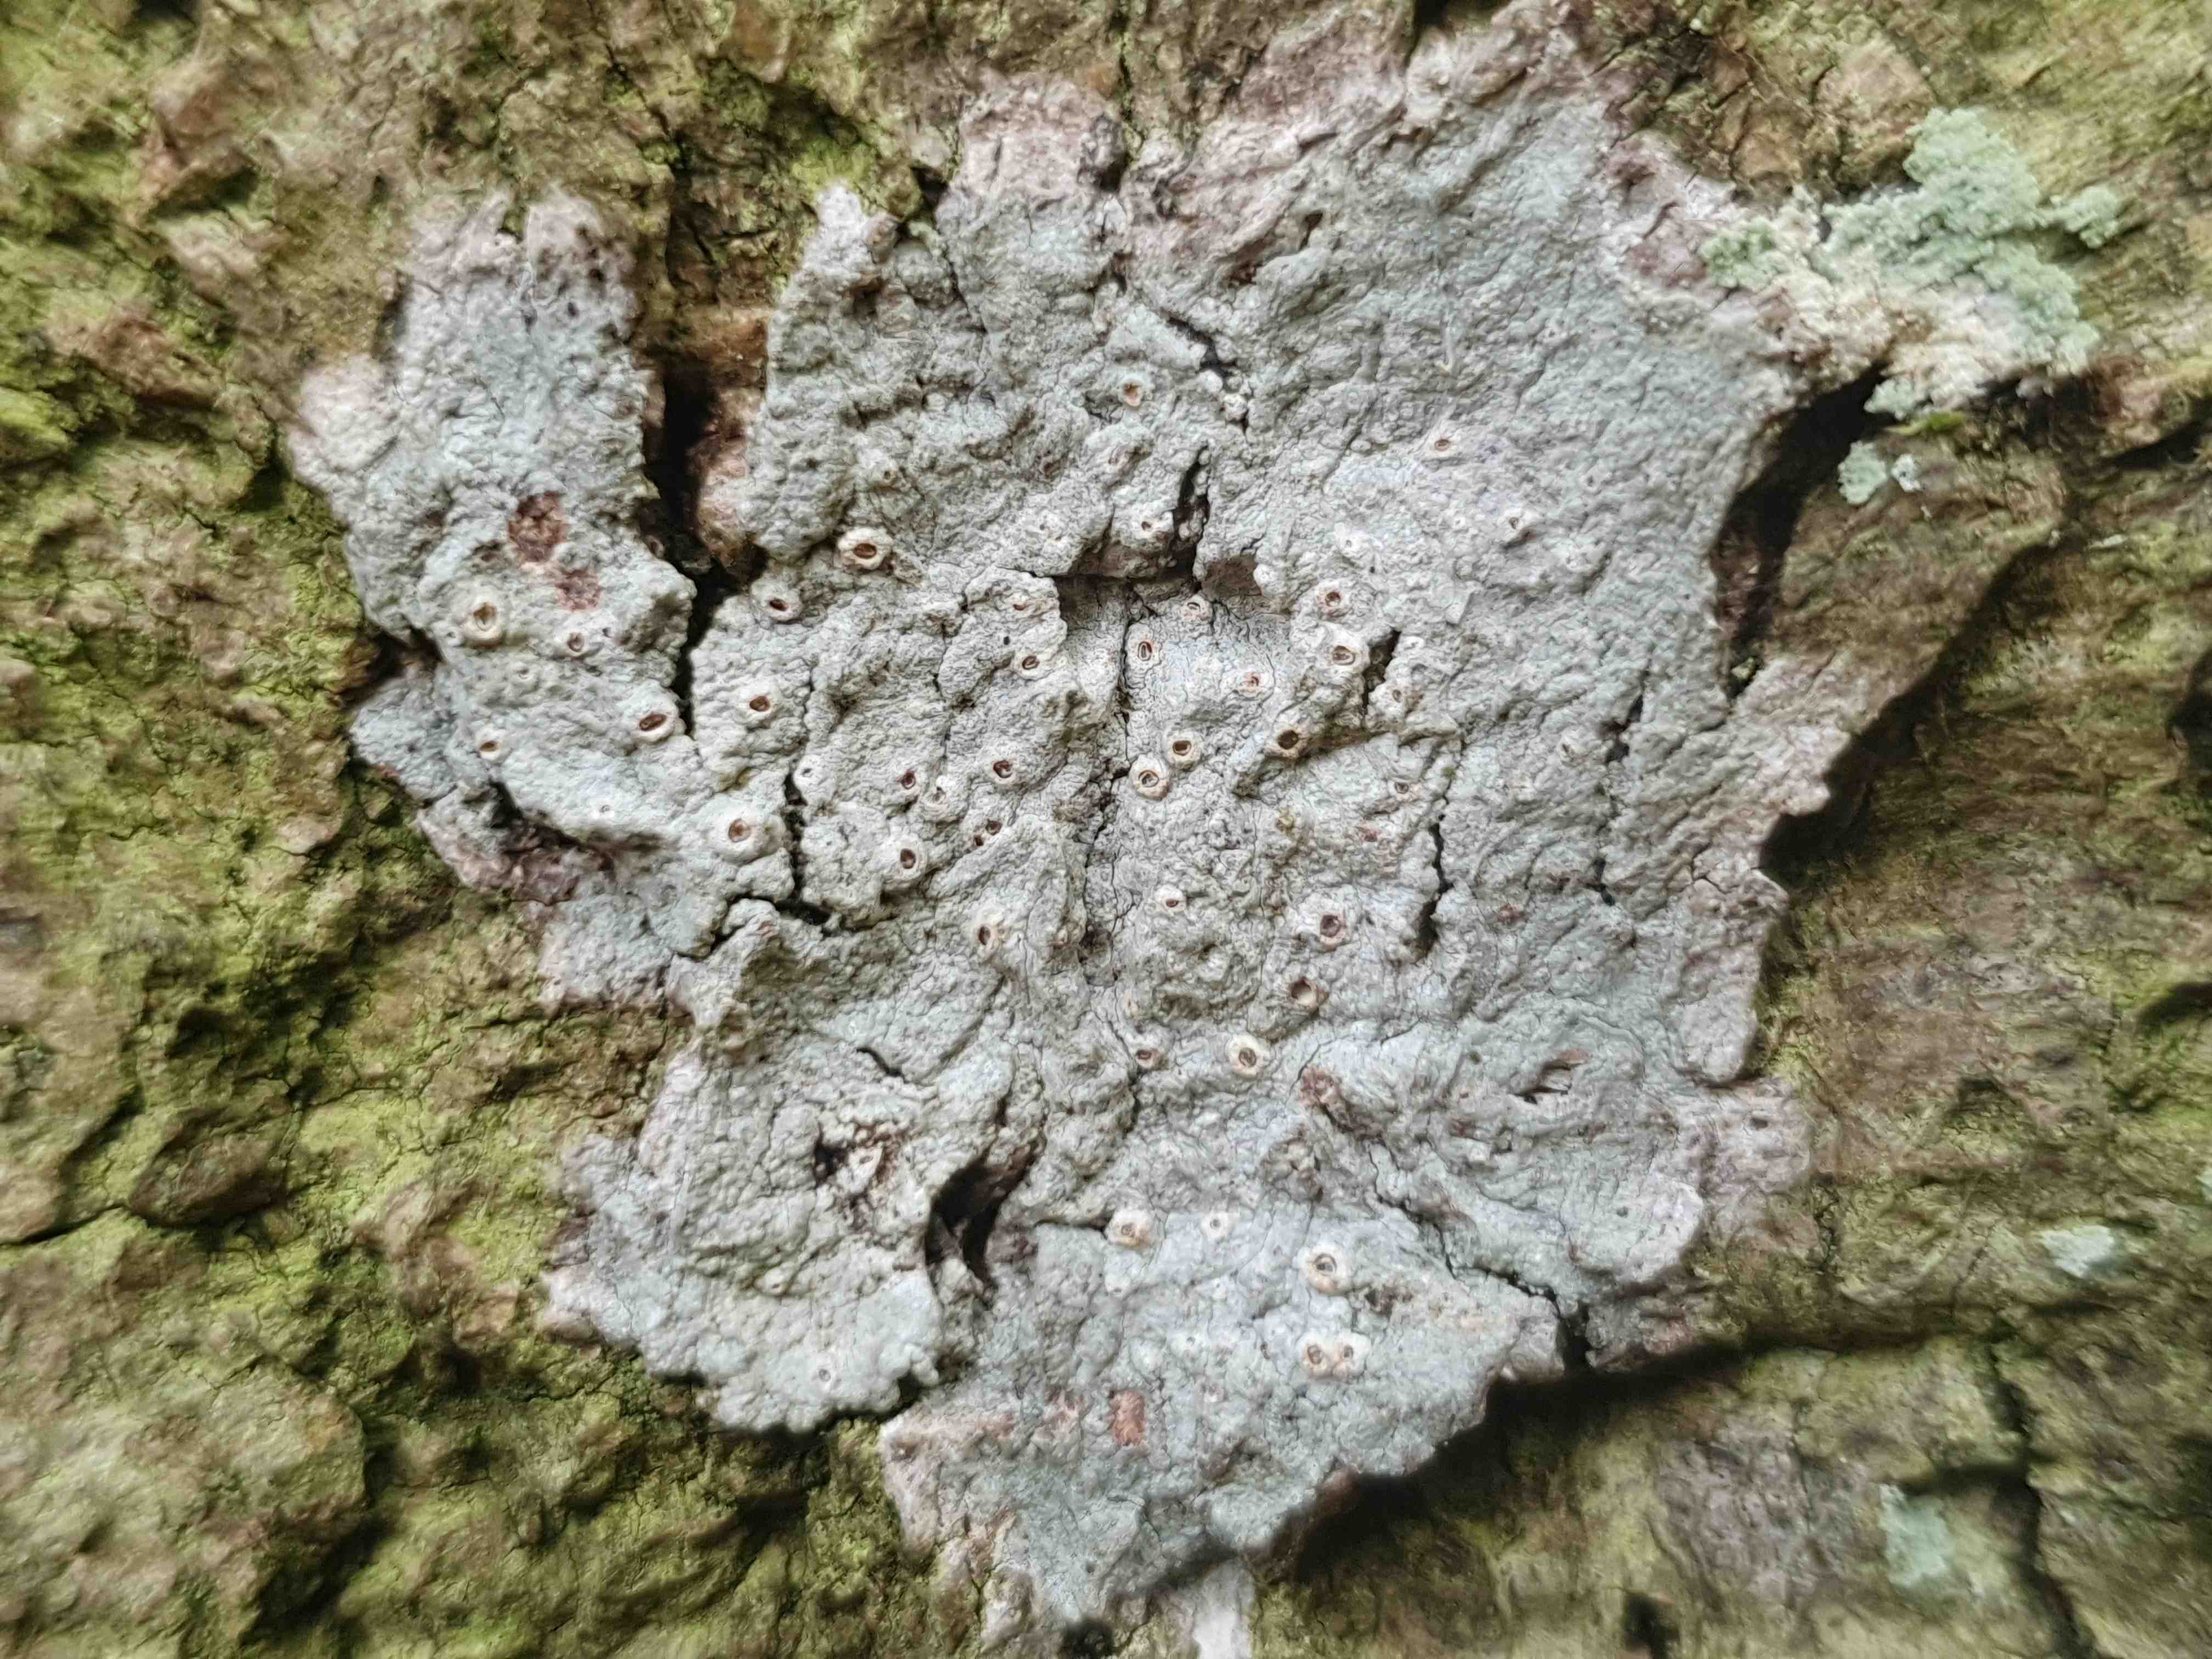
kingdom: Fungi
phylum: Ascomycota
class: Lecanoromycetes
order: Ostropales
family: Graphidaceae
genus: Thelotrema
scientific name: Thelotrema lepadinum
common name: almindelig slørkantlav
